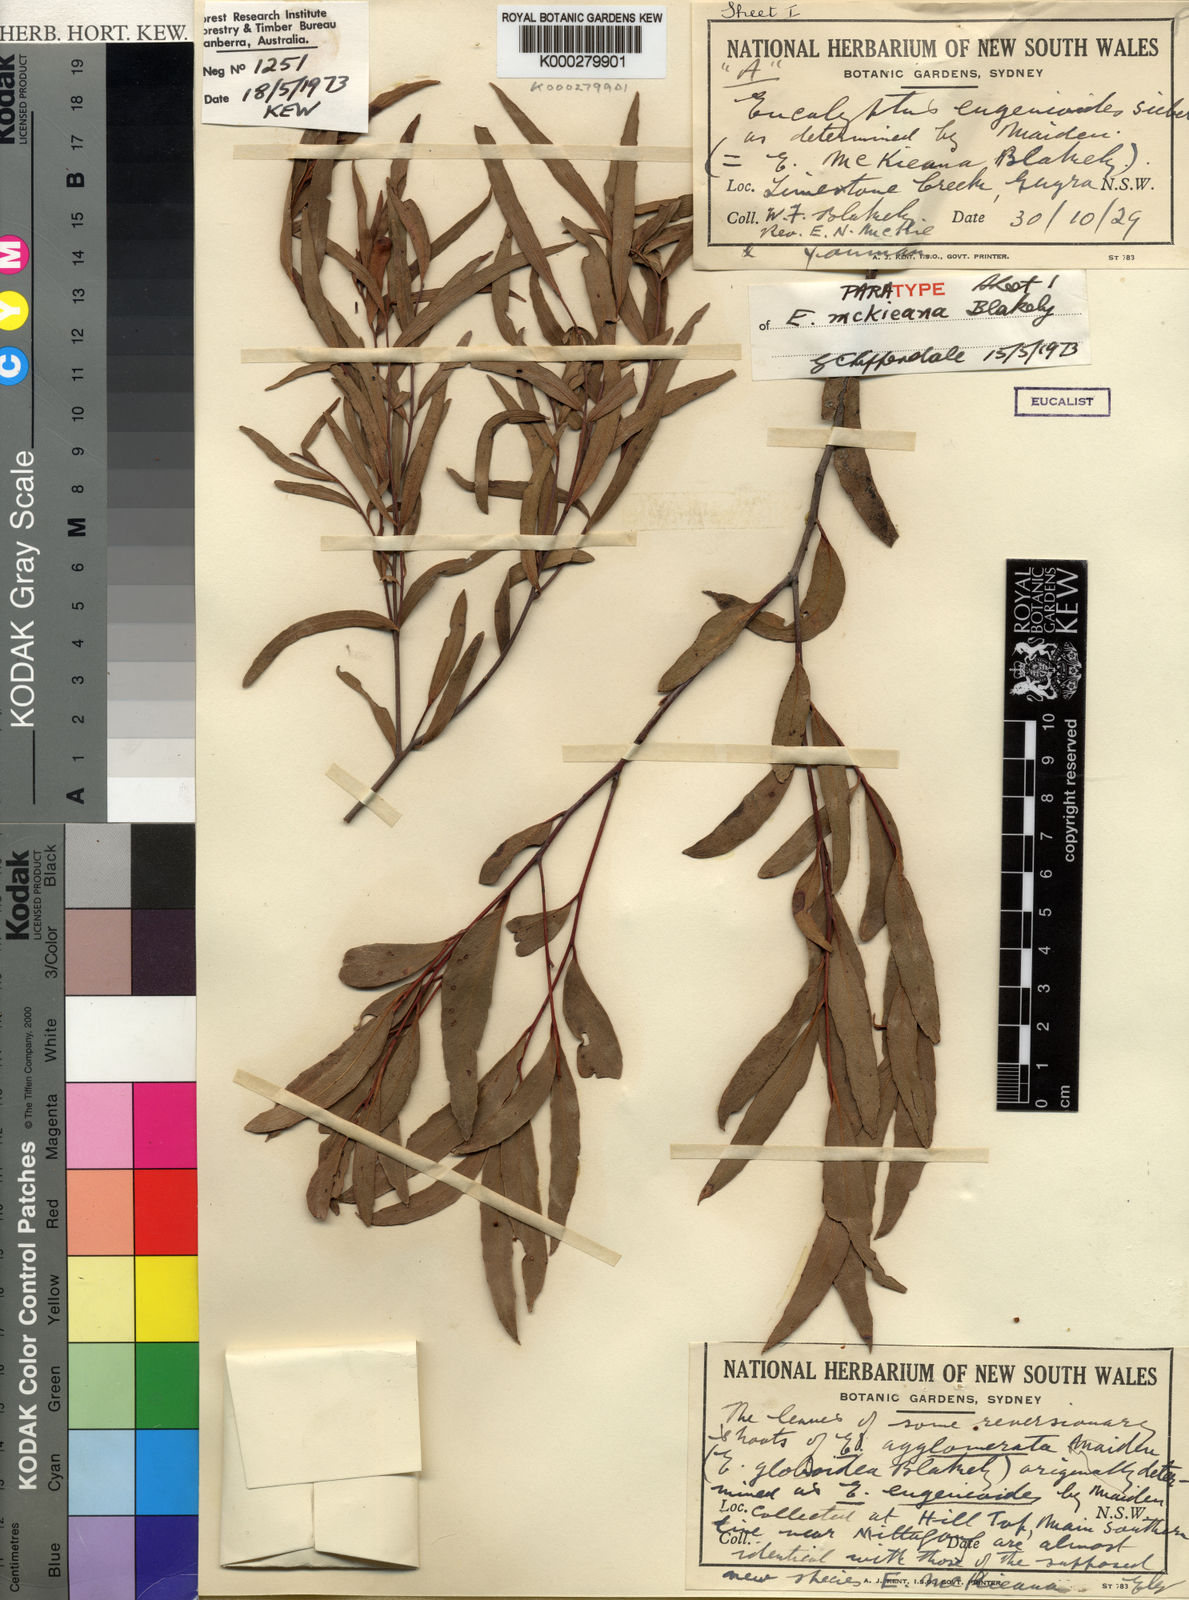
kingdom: Plantae
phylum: Tracheophyta
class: Magnoliopsida
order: Myrtales
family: Myrtaceae
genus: Eucalyptus
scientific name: Eucalyptus mckieana
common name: Mckie's stringybark
